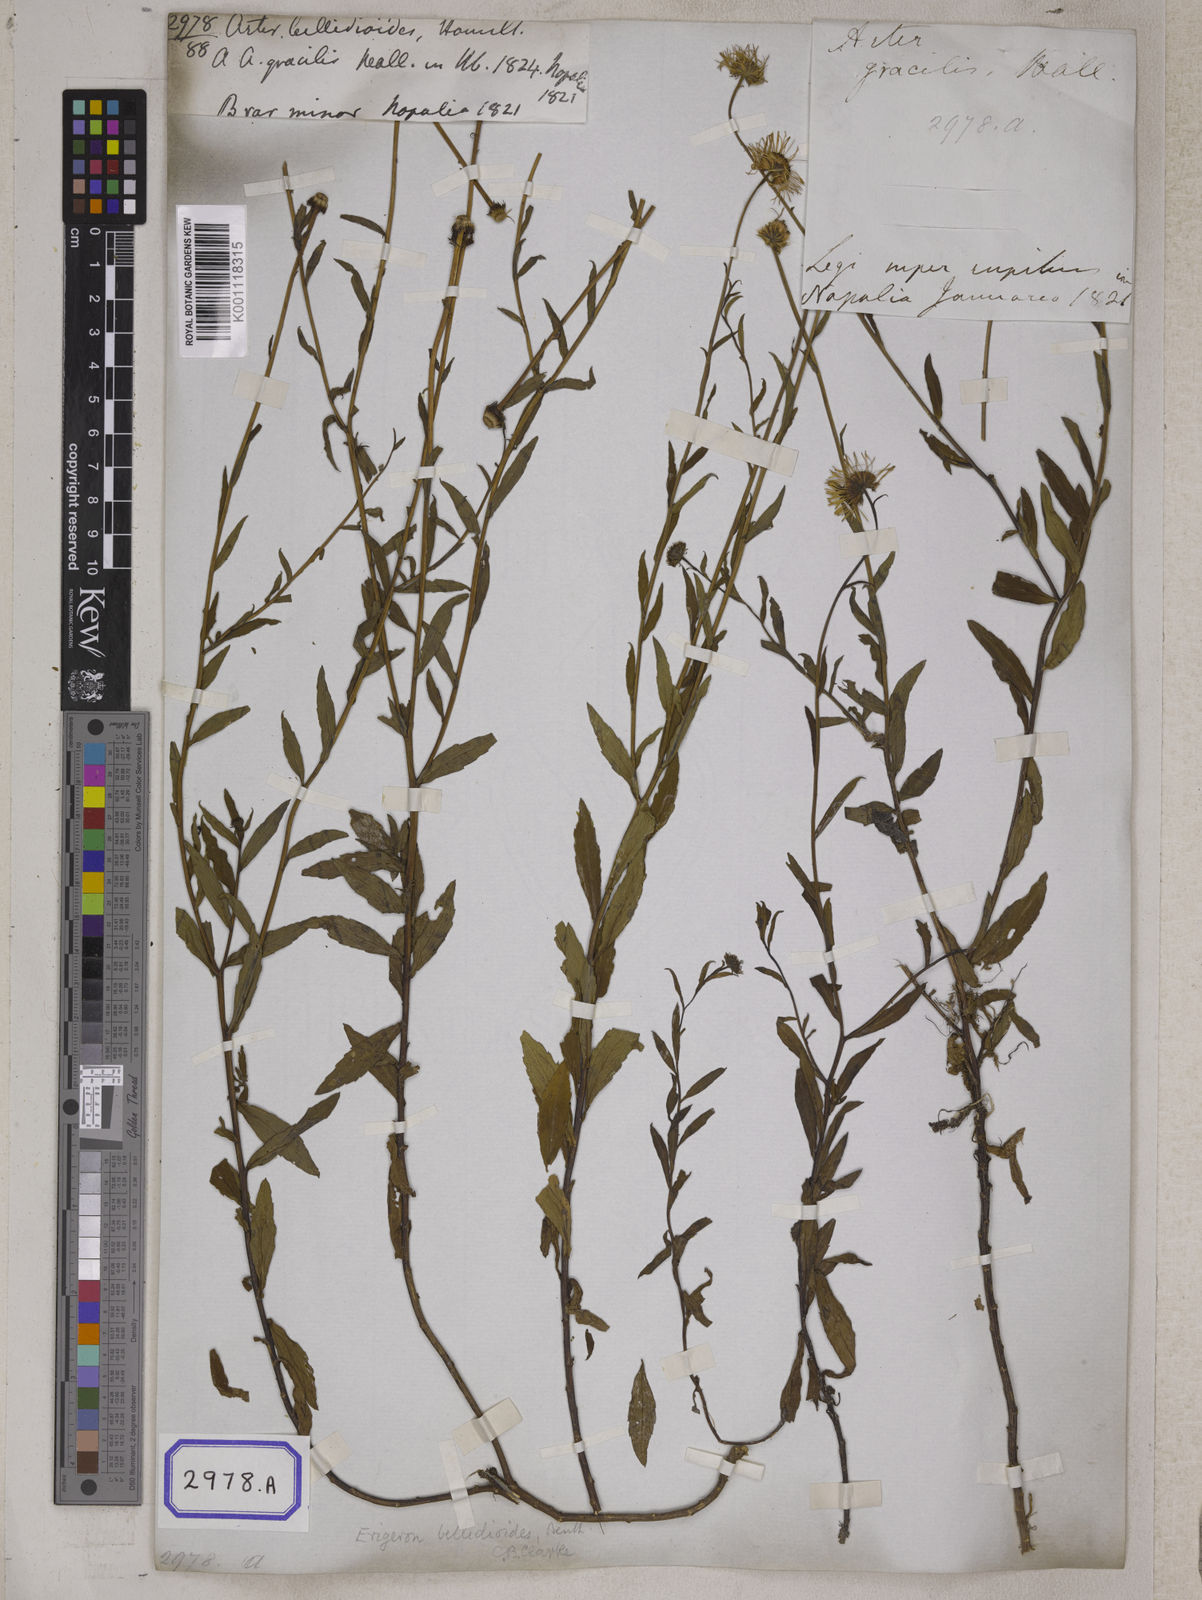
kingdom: Plantae
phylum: Tracheophyta
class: Magnoliopsida
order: Asterales
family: Asteraceae
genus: Aster
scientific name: Aster
